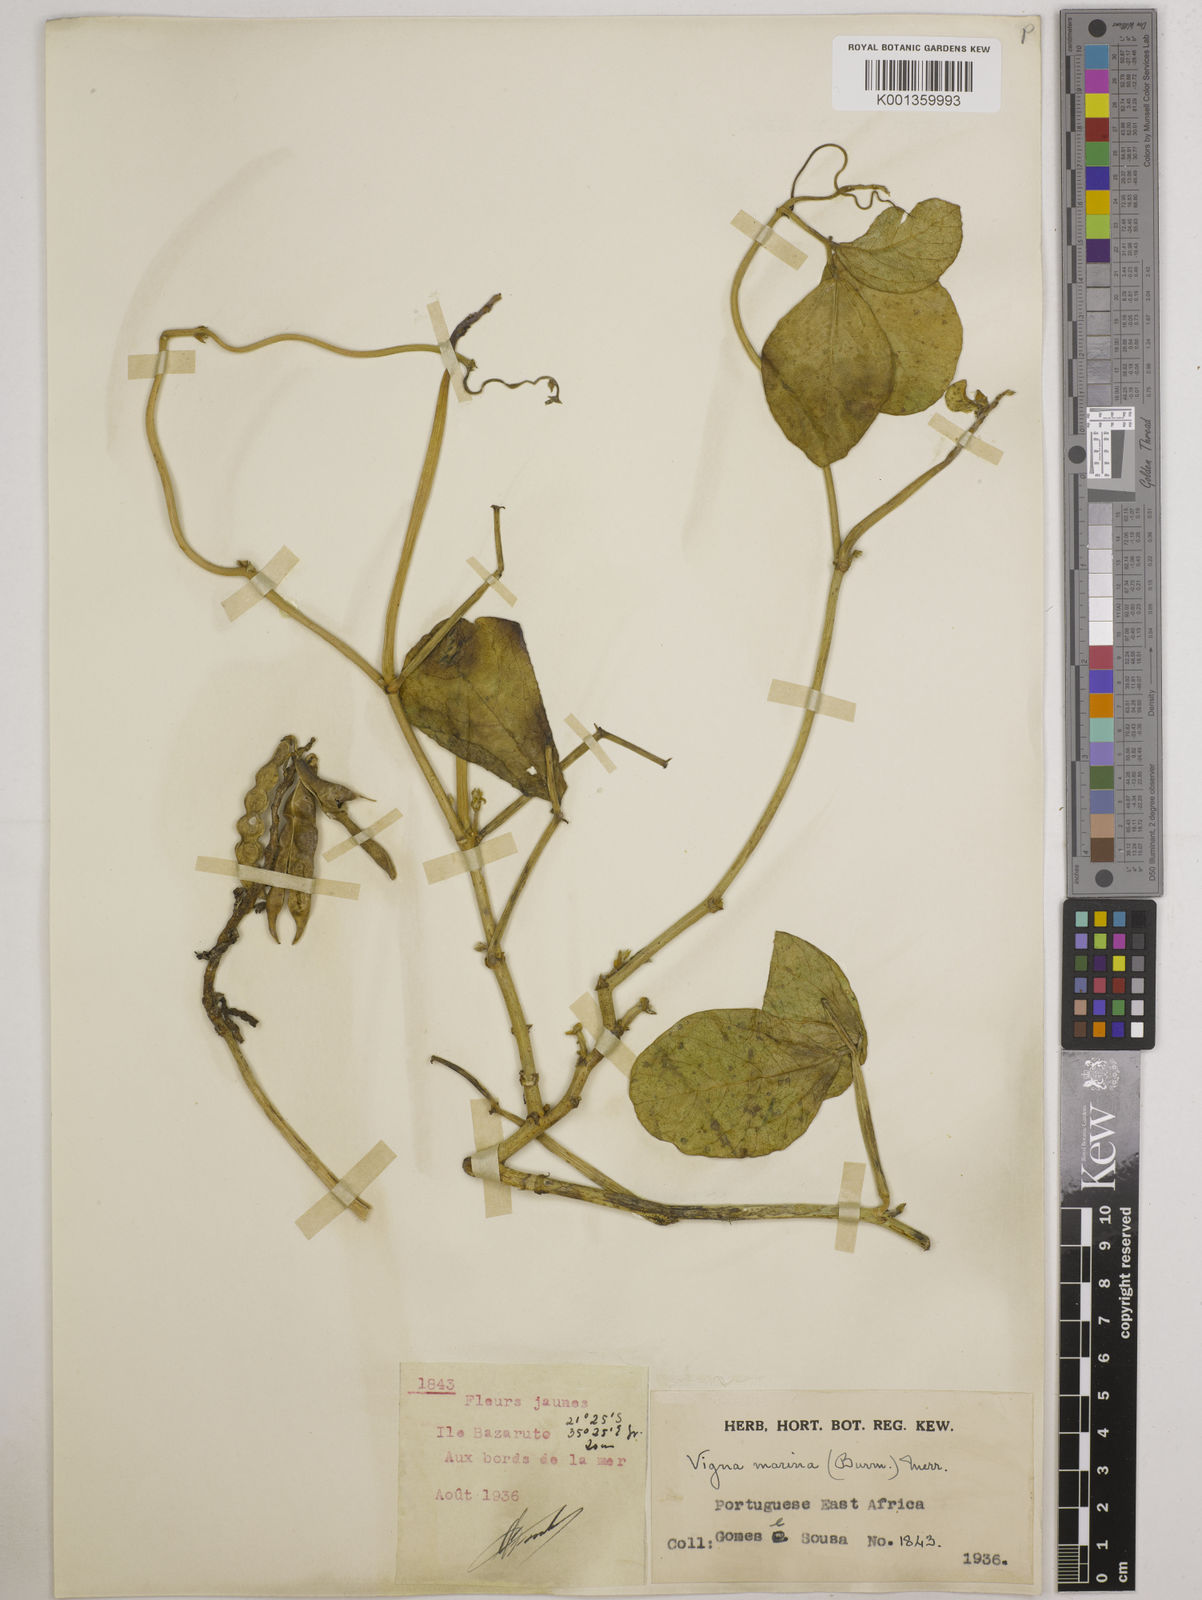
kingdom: Plantae
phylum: Tracheophyta
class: Magnoliopsida
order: Fabales
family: Fabaceae
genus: Vigna
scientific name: Vigna marina
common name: Dune-bean
